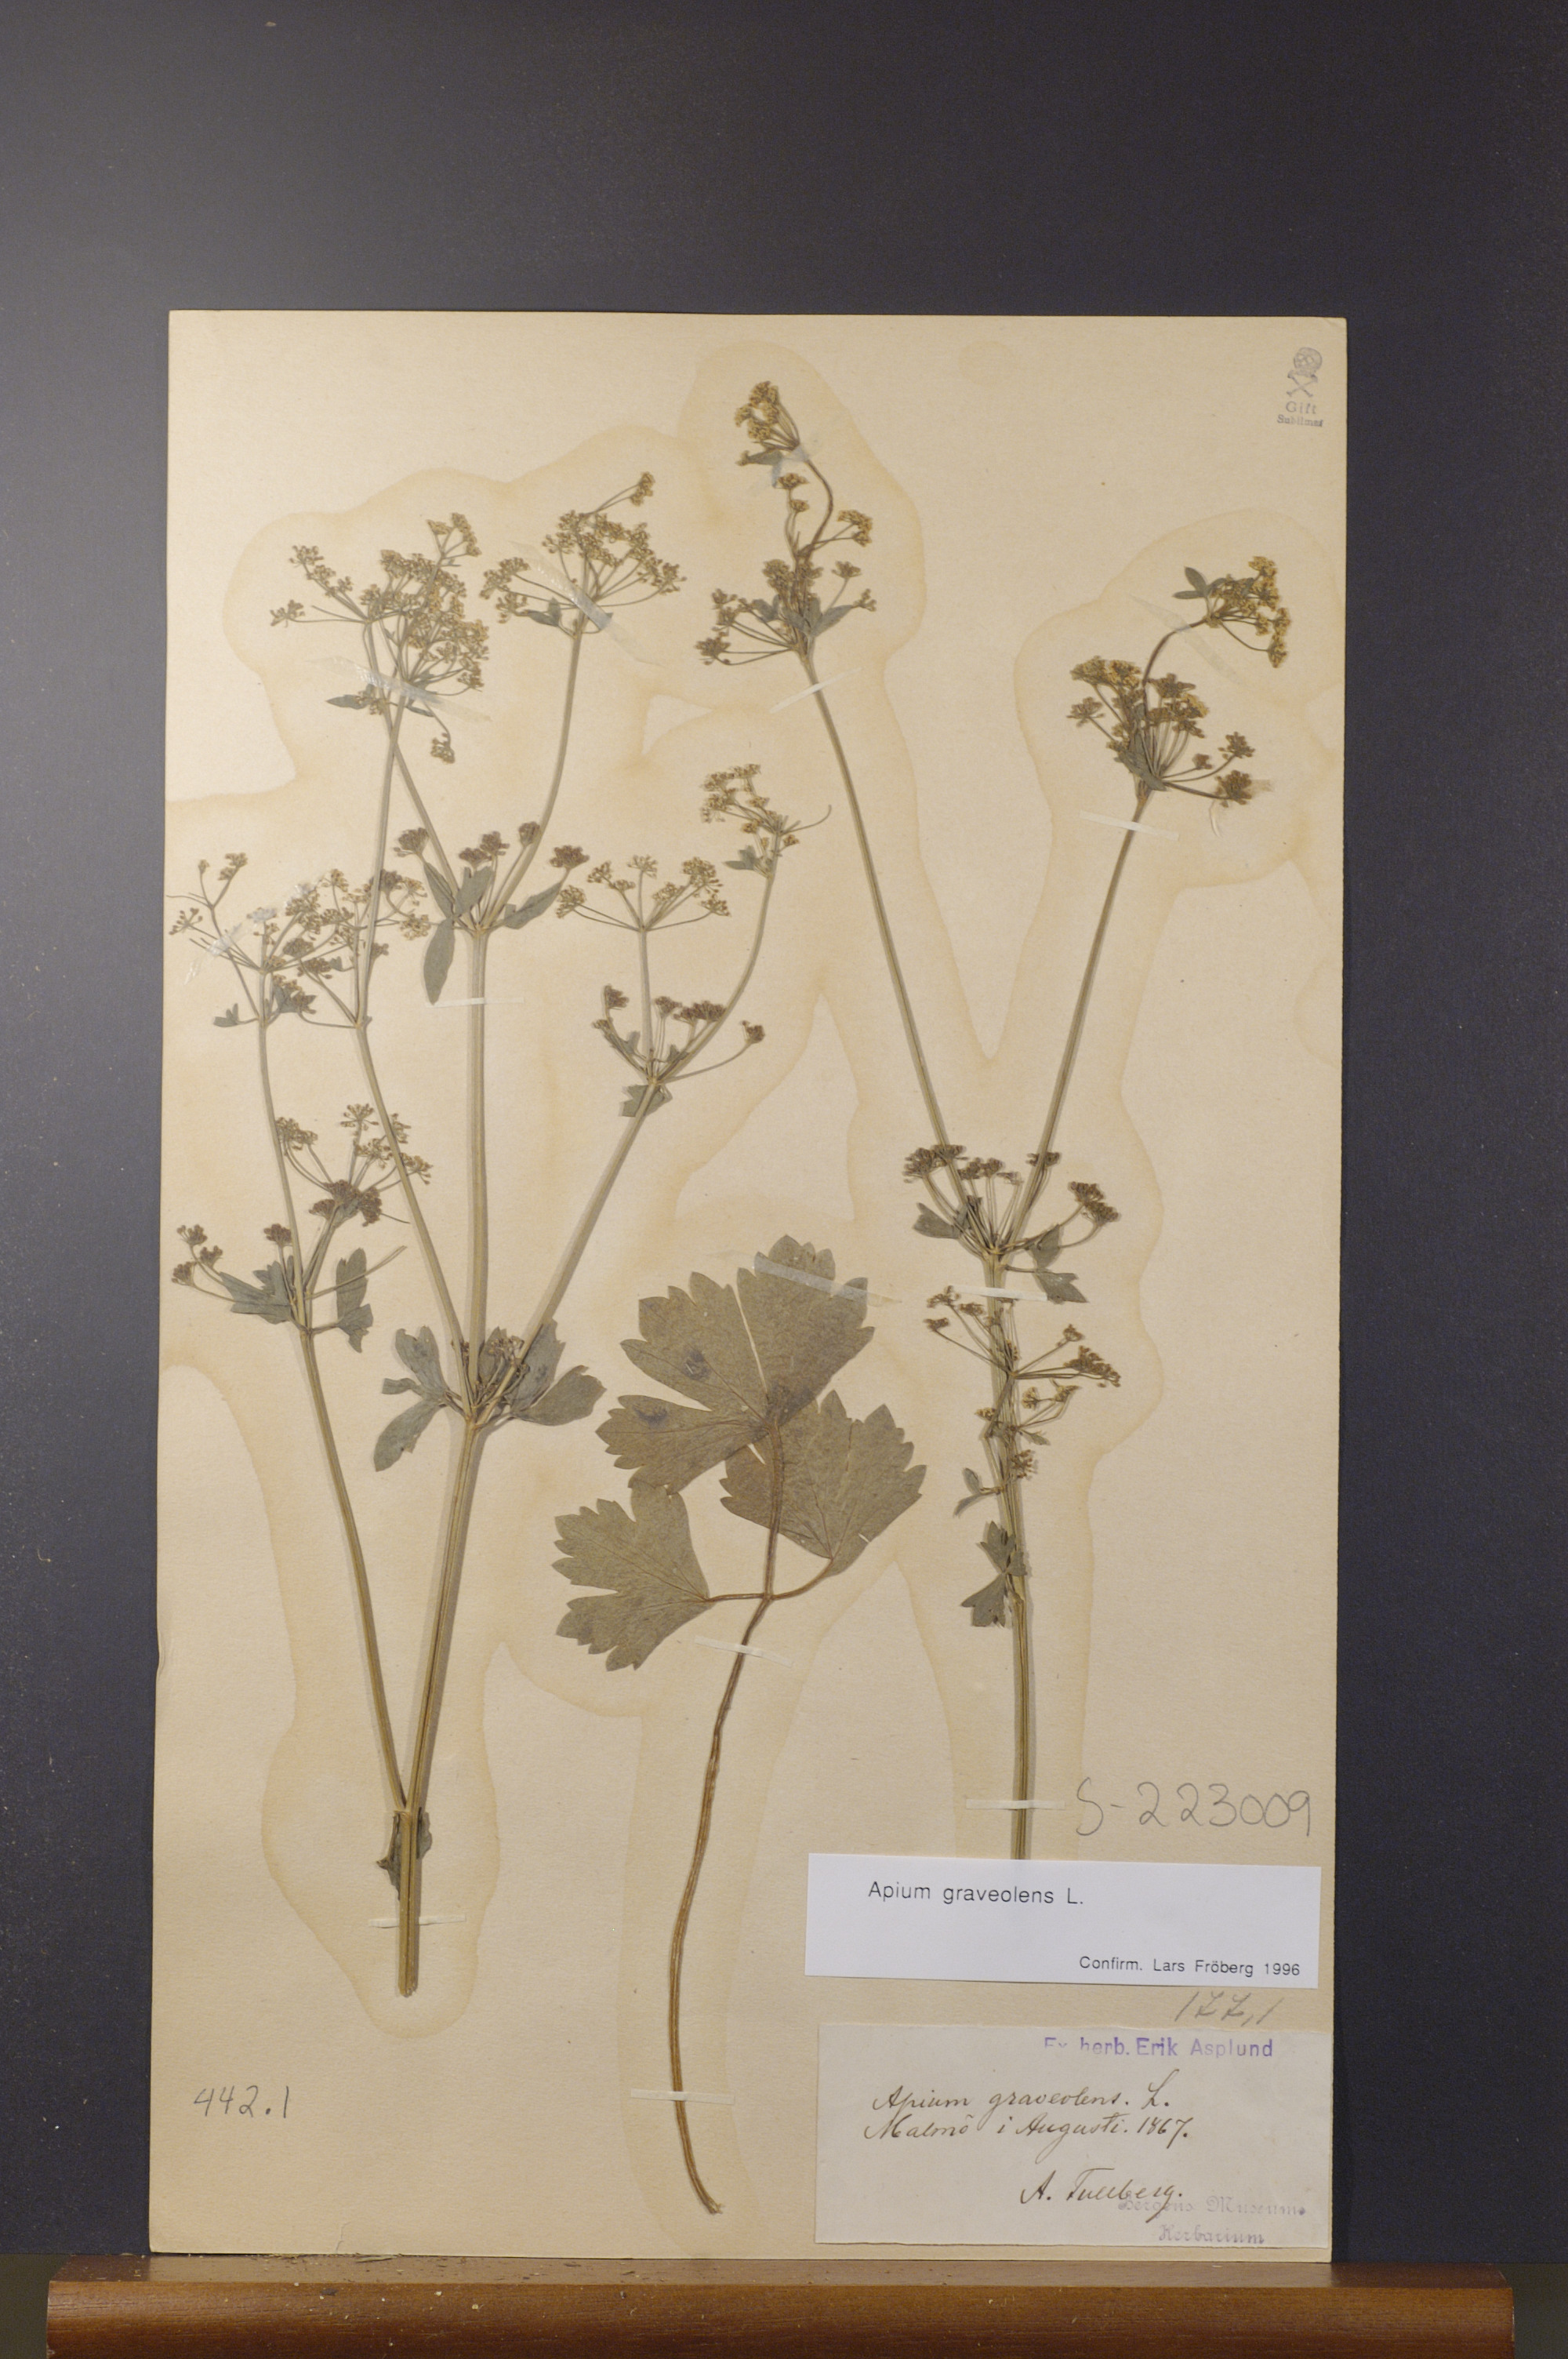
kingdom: Plantae
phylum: Tracheophyta
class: Magnoliopsida
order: Apiales
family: Apiaceae
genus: Apium
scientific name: Apium graveolens
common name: Wild celery
